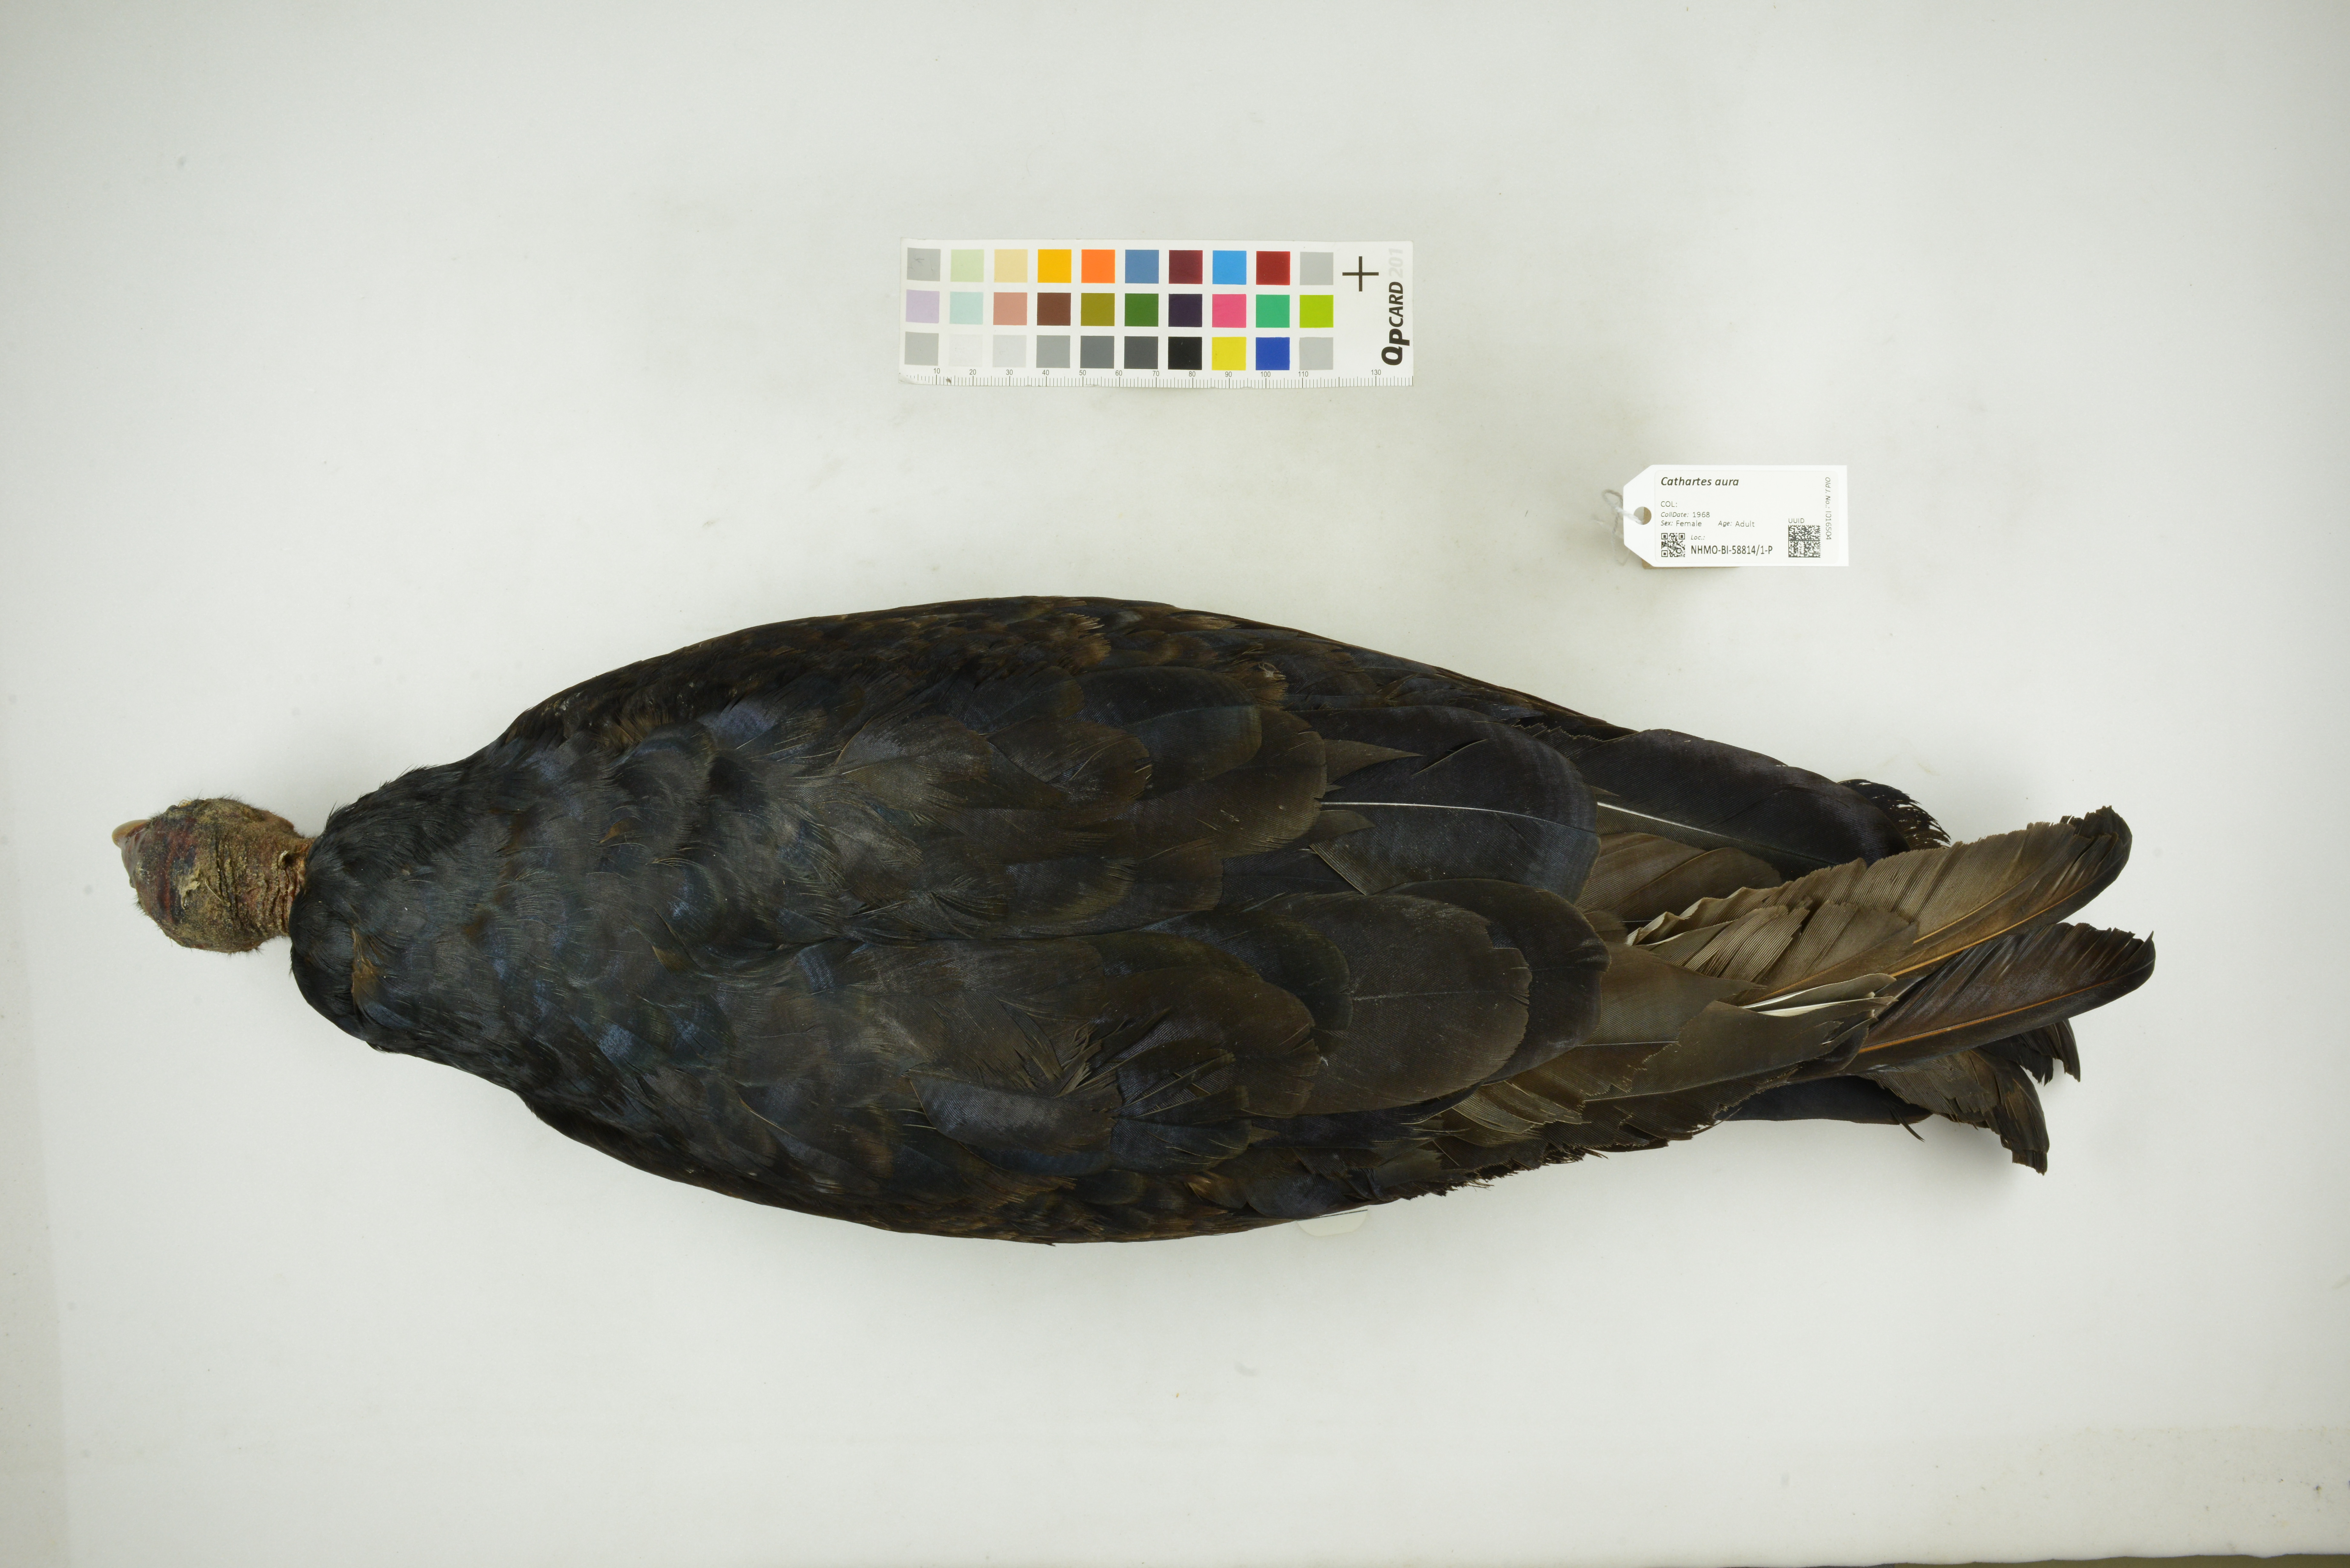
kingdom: Animalia
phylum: Chordata
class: Aves
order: Accipitriformes
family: Cathartidae
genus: Cathartes
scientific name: Cathartes aura
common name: Turkey vulture
